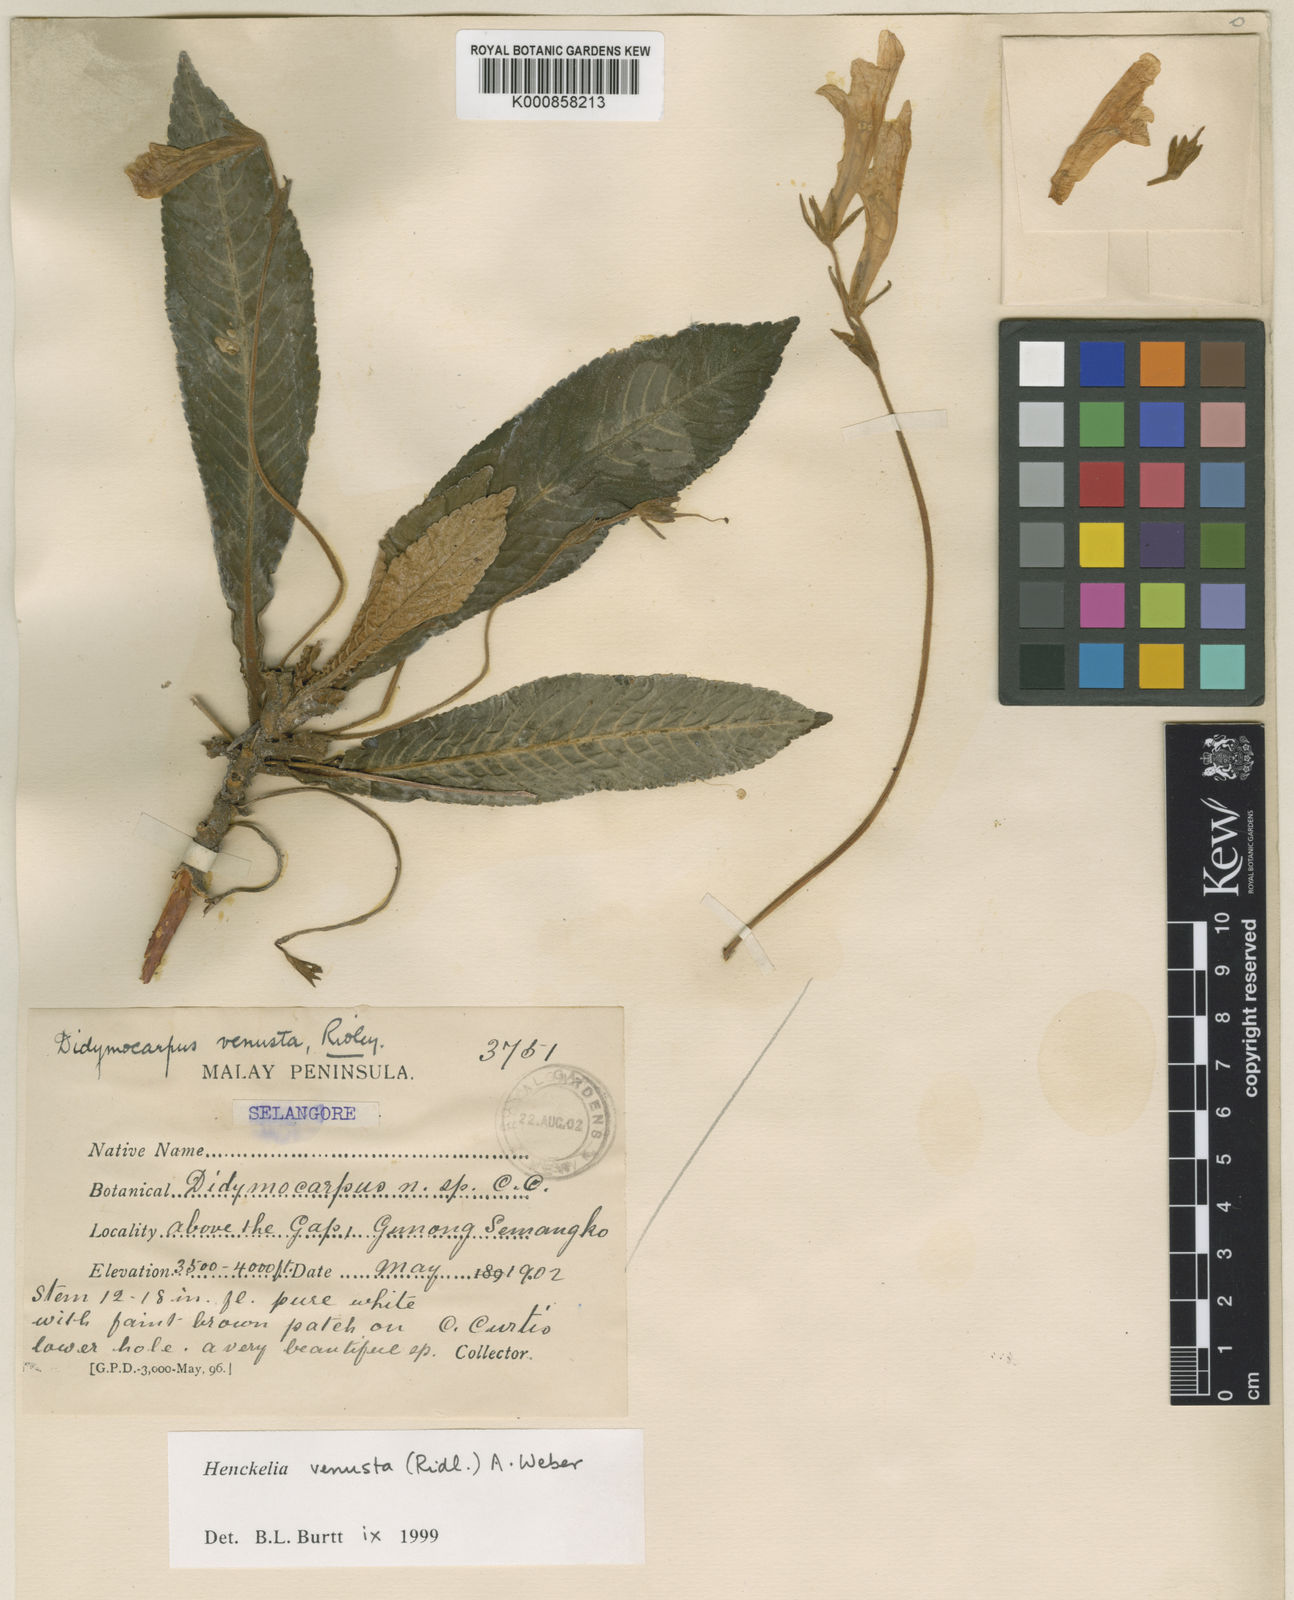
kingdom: Plantae
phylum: Tracheophyta
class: Magnoliopsida
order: Lamiales
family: Gesneriaceae
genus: Codonoboea
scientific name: Codonoboea venusta
